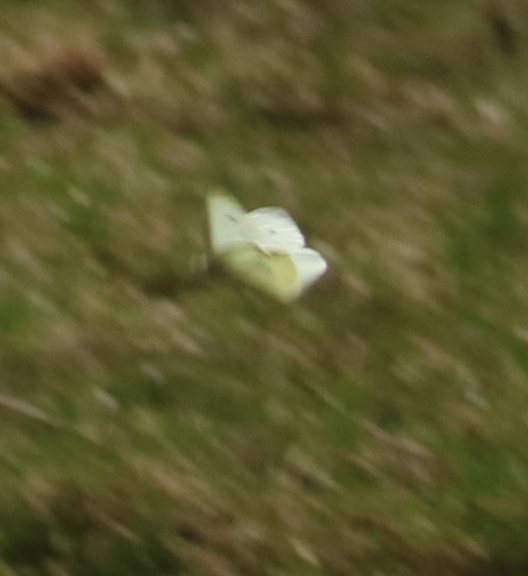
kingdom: Animalia
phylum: Arthropoda
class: Insecta
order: Lepidoptera
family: Pieridae
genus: Pieris
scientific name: Pieris rapae
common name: Cabbage White
